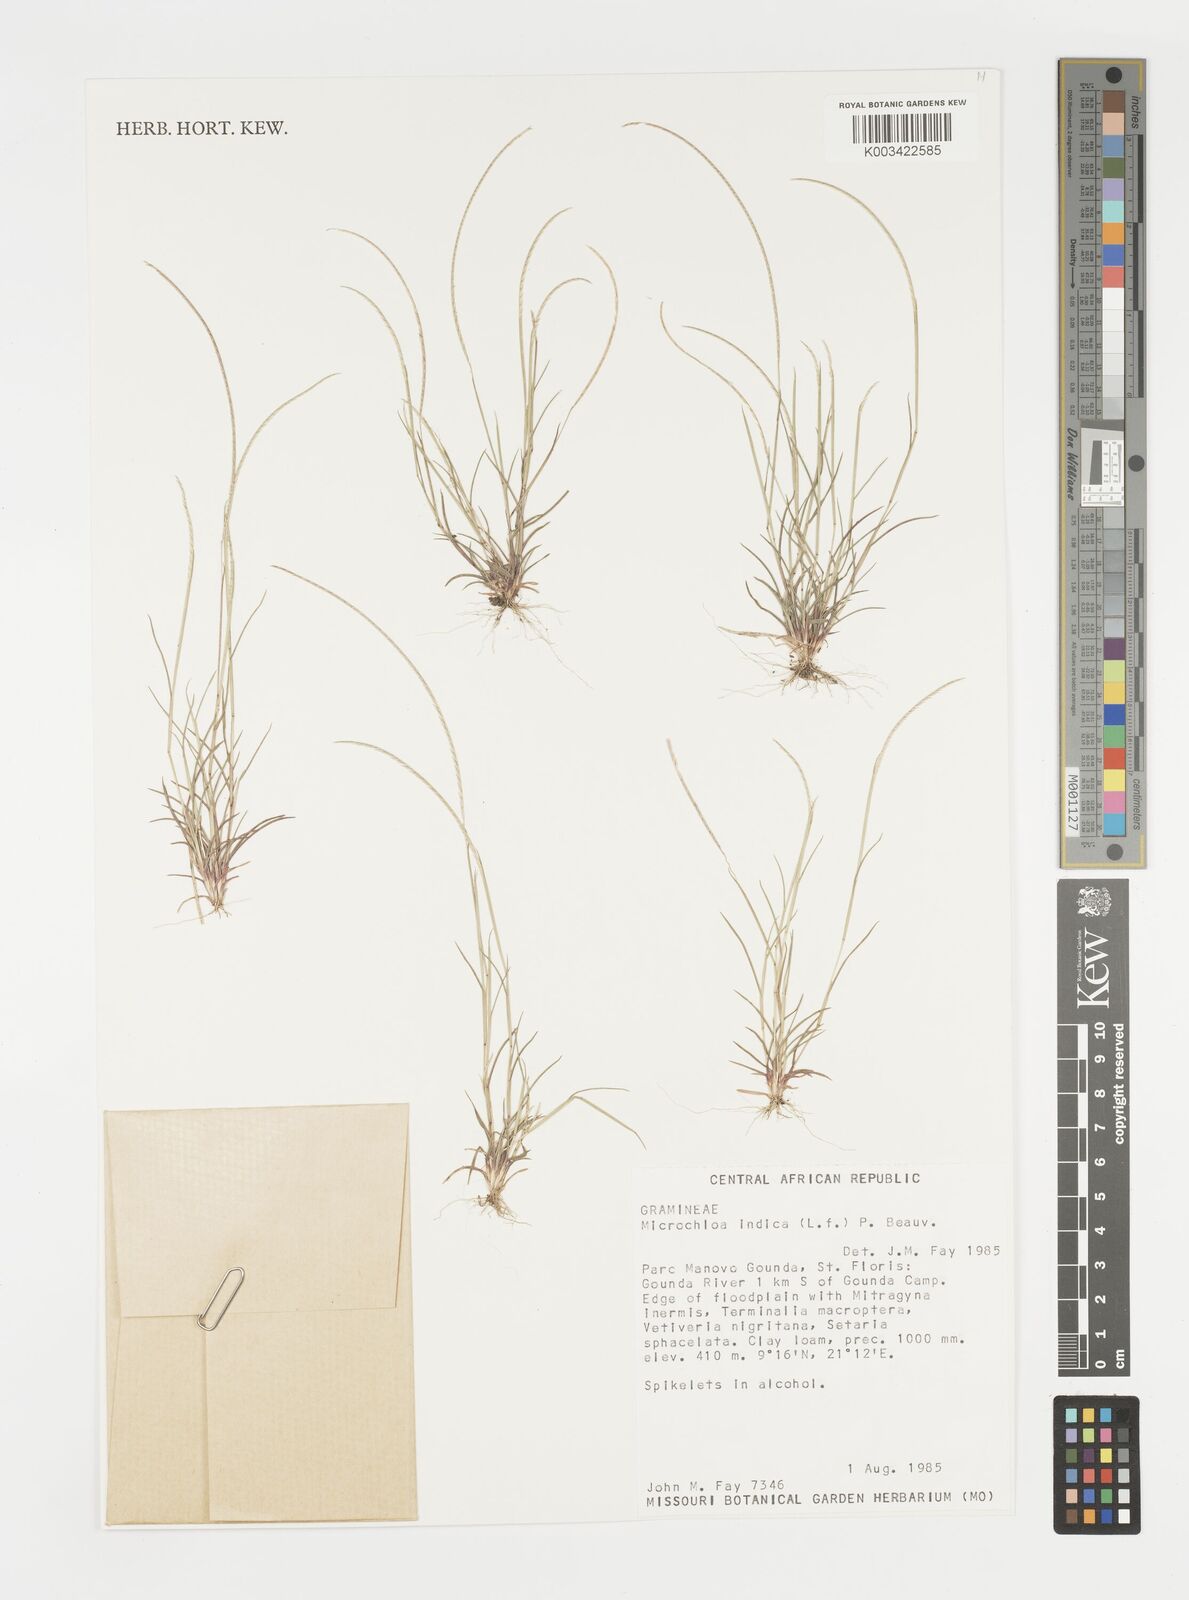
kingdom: Plantae
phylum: Tracheophyta
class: Liliopsida
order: Poales
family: Poaceae
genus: Microchloa
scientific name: Microchloa indica
